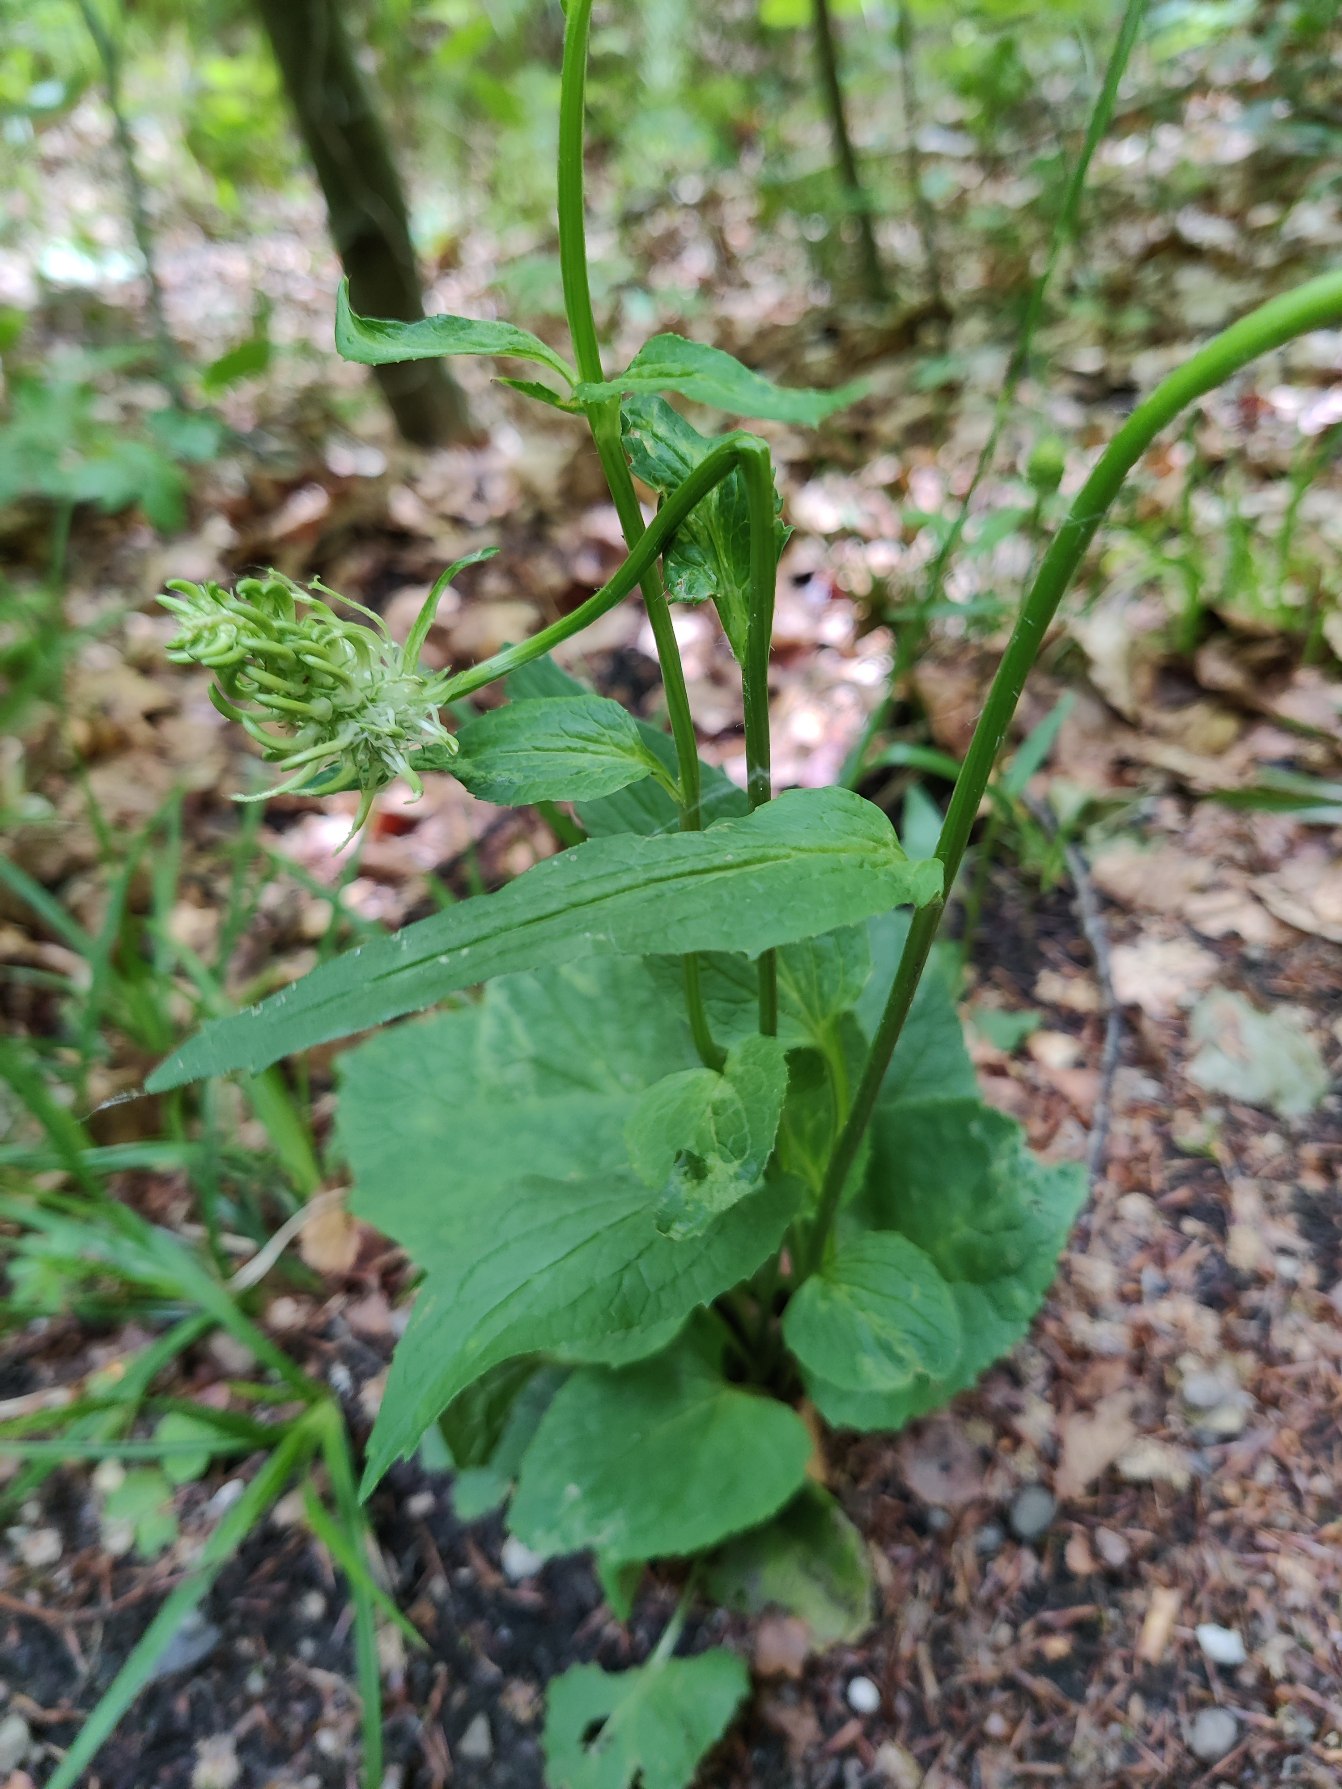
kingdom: Plantae
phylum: Tracheophyta
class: Magnoliopsida
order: Asterales
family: Campanulaceae
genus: Phyteuma
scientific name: Phyteuma spicatum
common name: Aks-rapunsel
